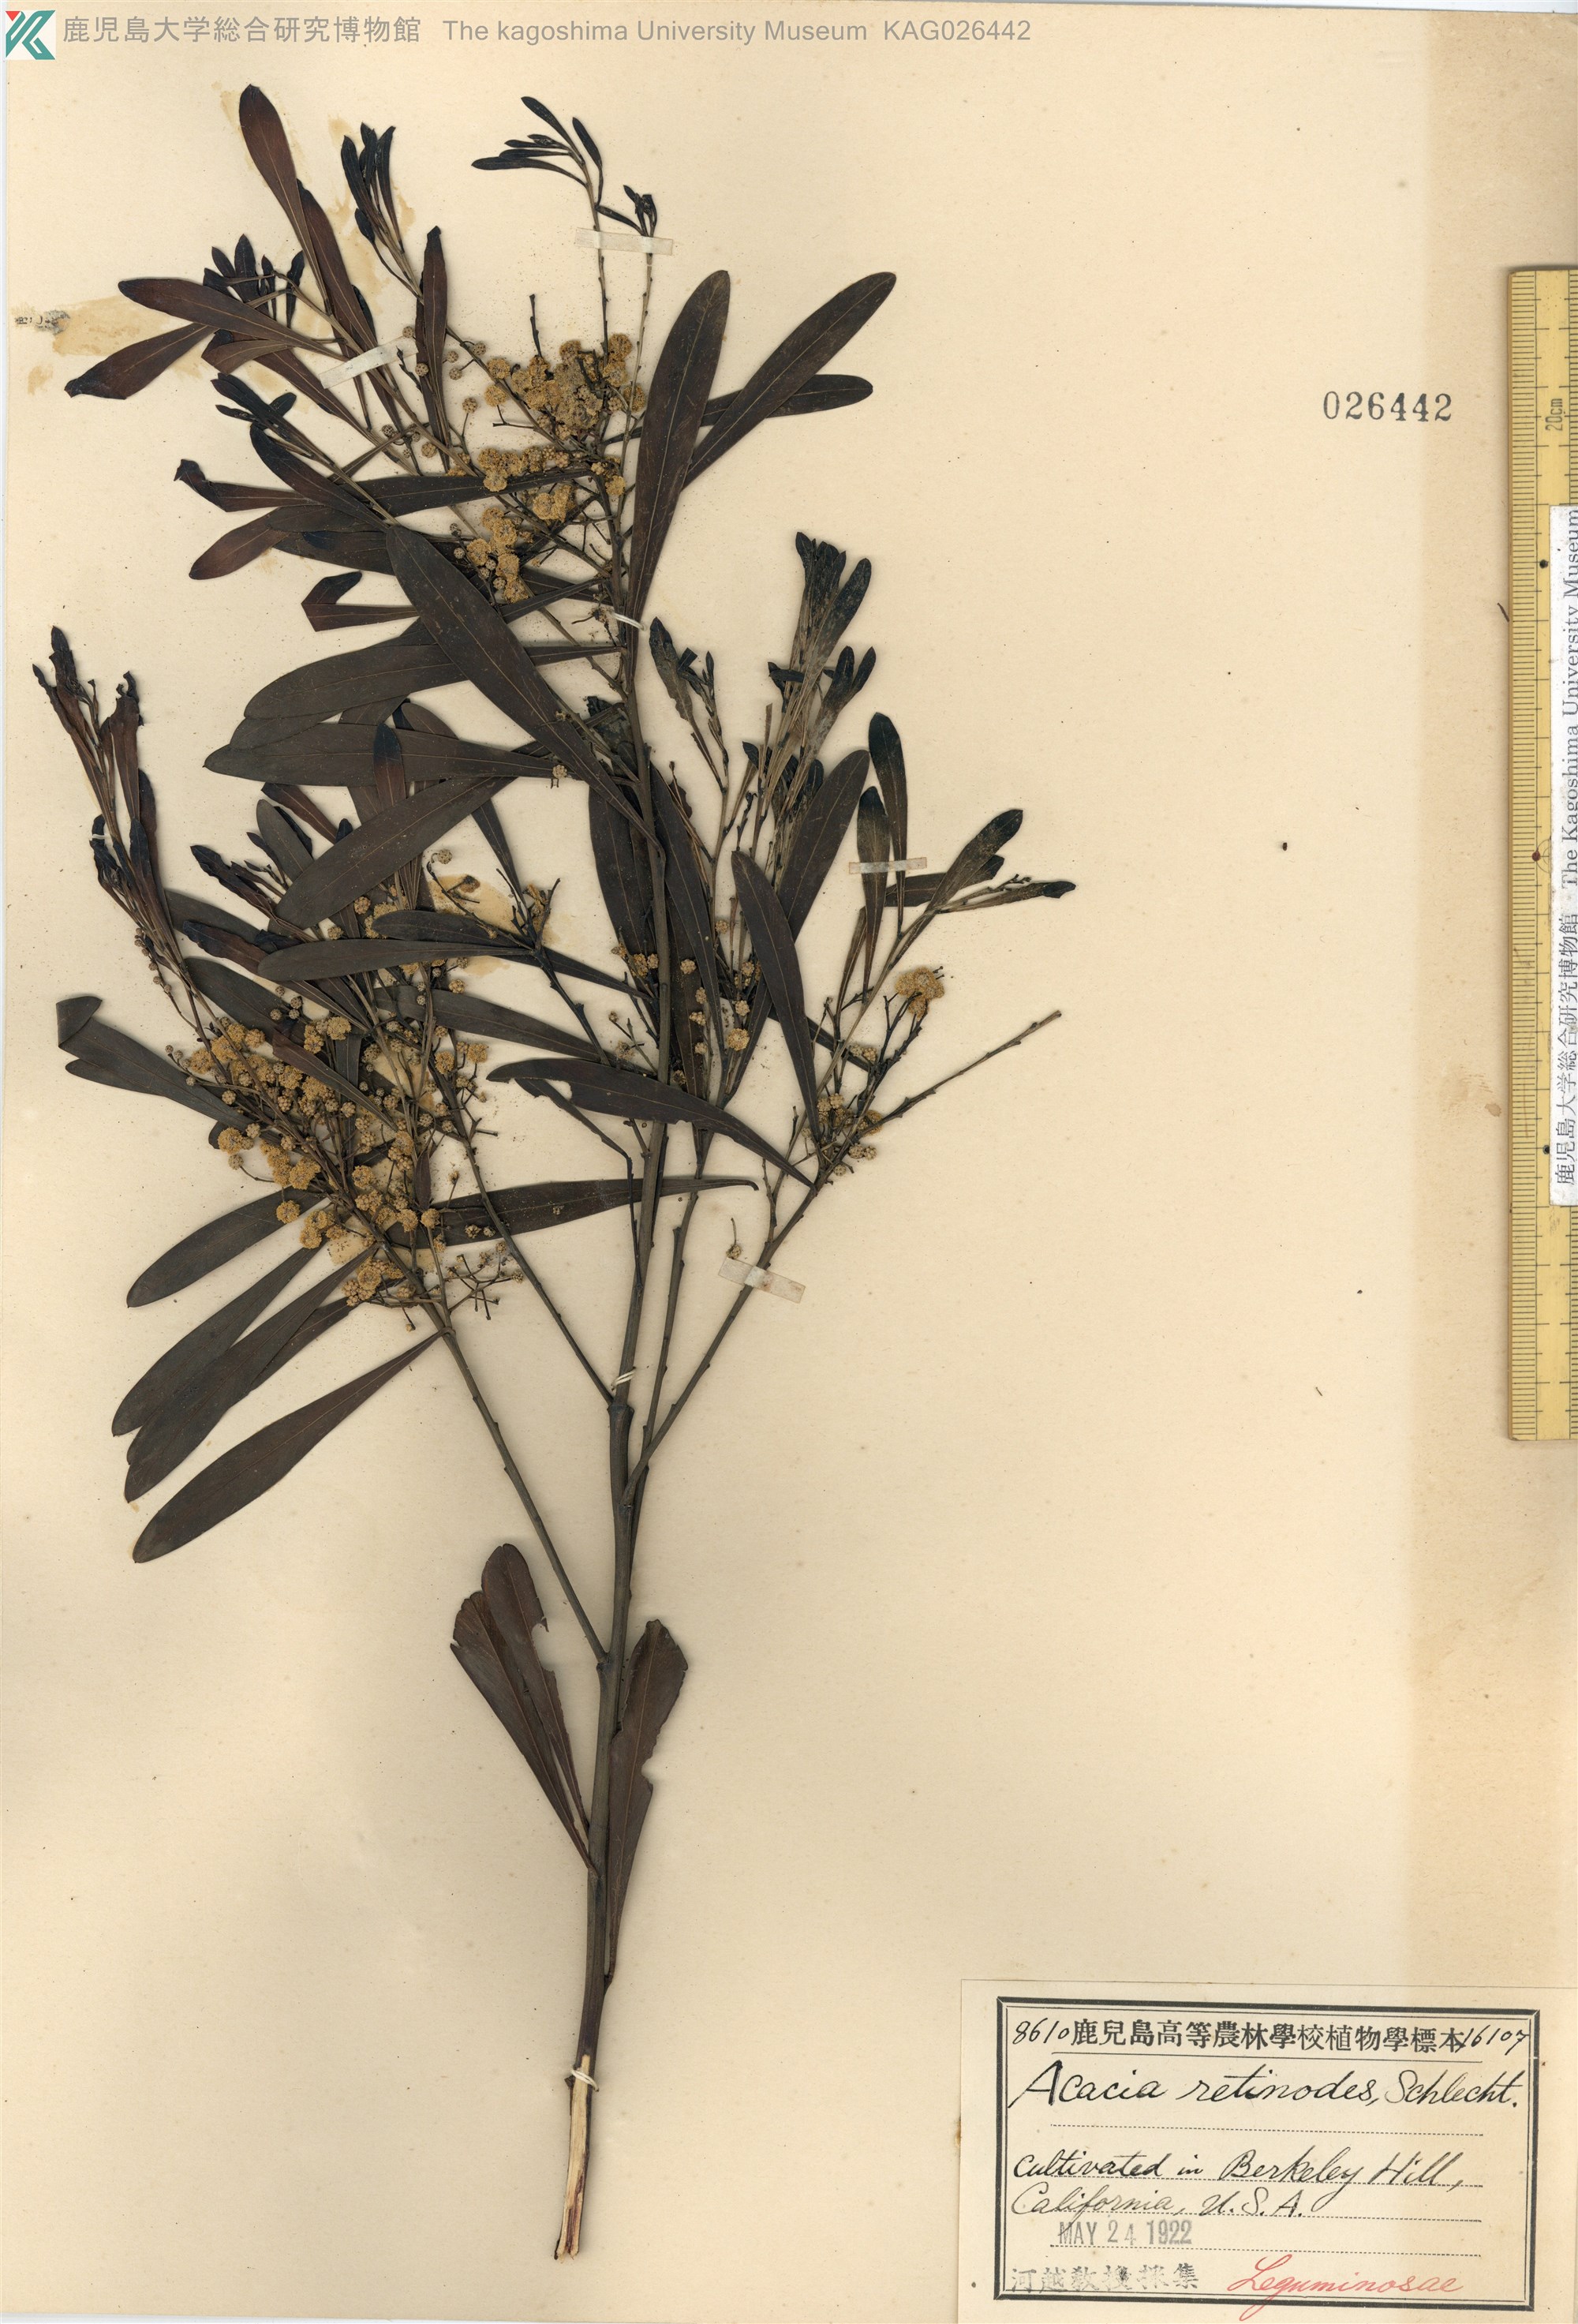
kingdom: Plantae
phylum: Tracheophyta
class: Magnoliopsida
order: Fabales
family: Fabaceae
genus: Acacia
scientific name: Acacia retinodes
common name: Silver wattle
